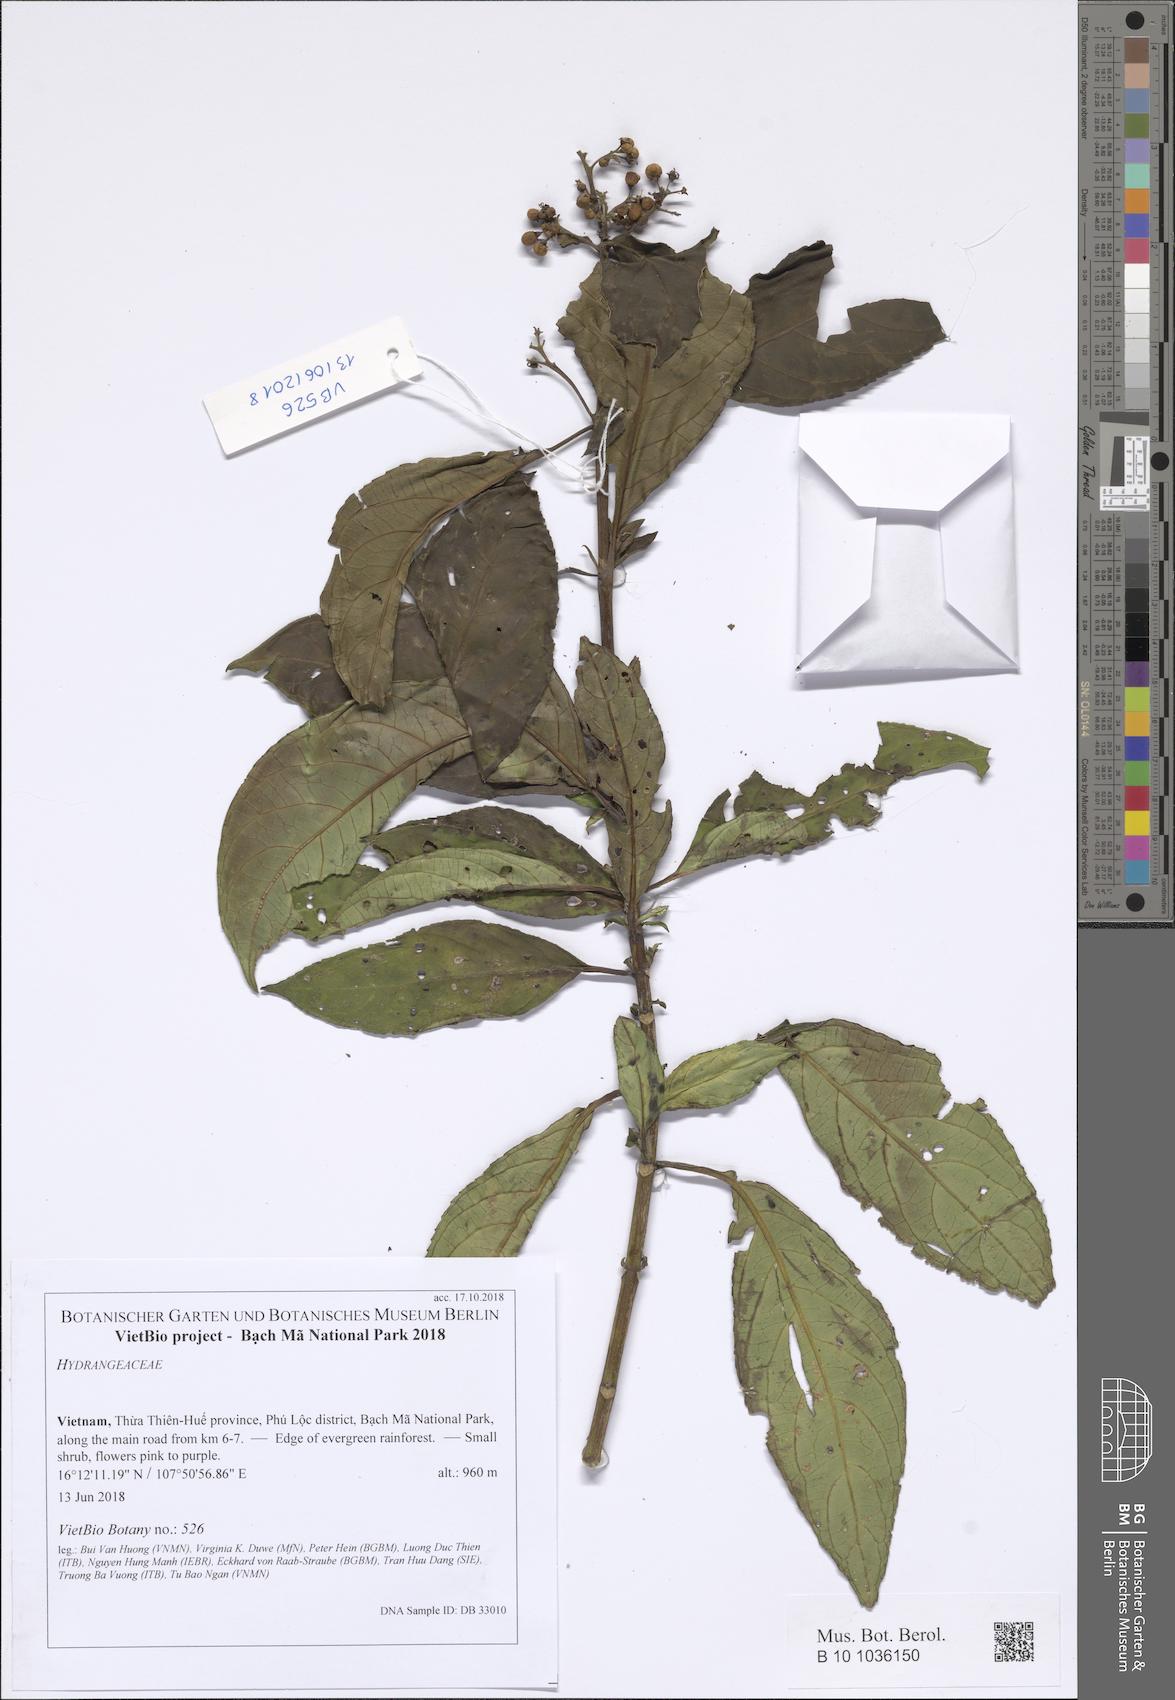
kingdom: Plantae
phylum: Tracheophyta
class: Magnoliopsida
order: Cornales
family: Hydrangeaceae
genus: Hydrangea
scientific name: Hydrangea febrifuga
